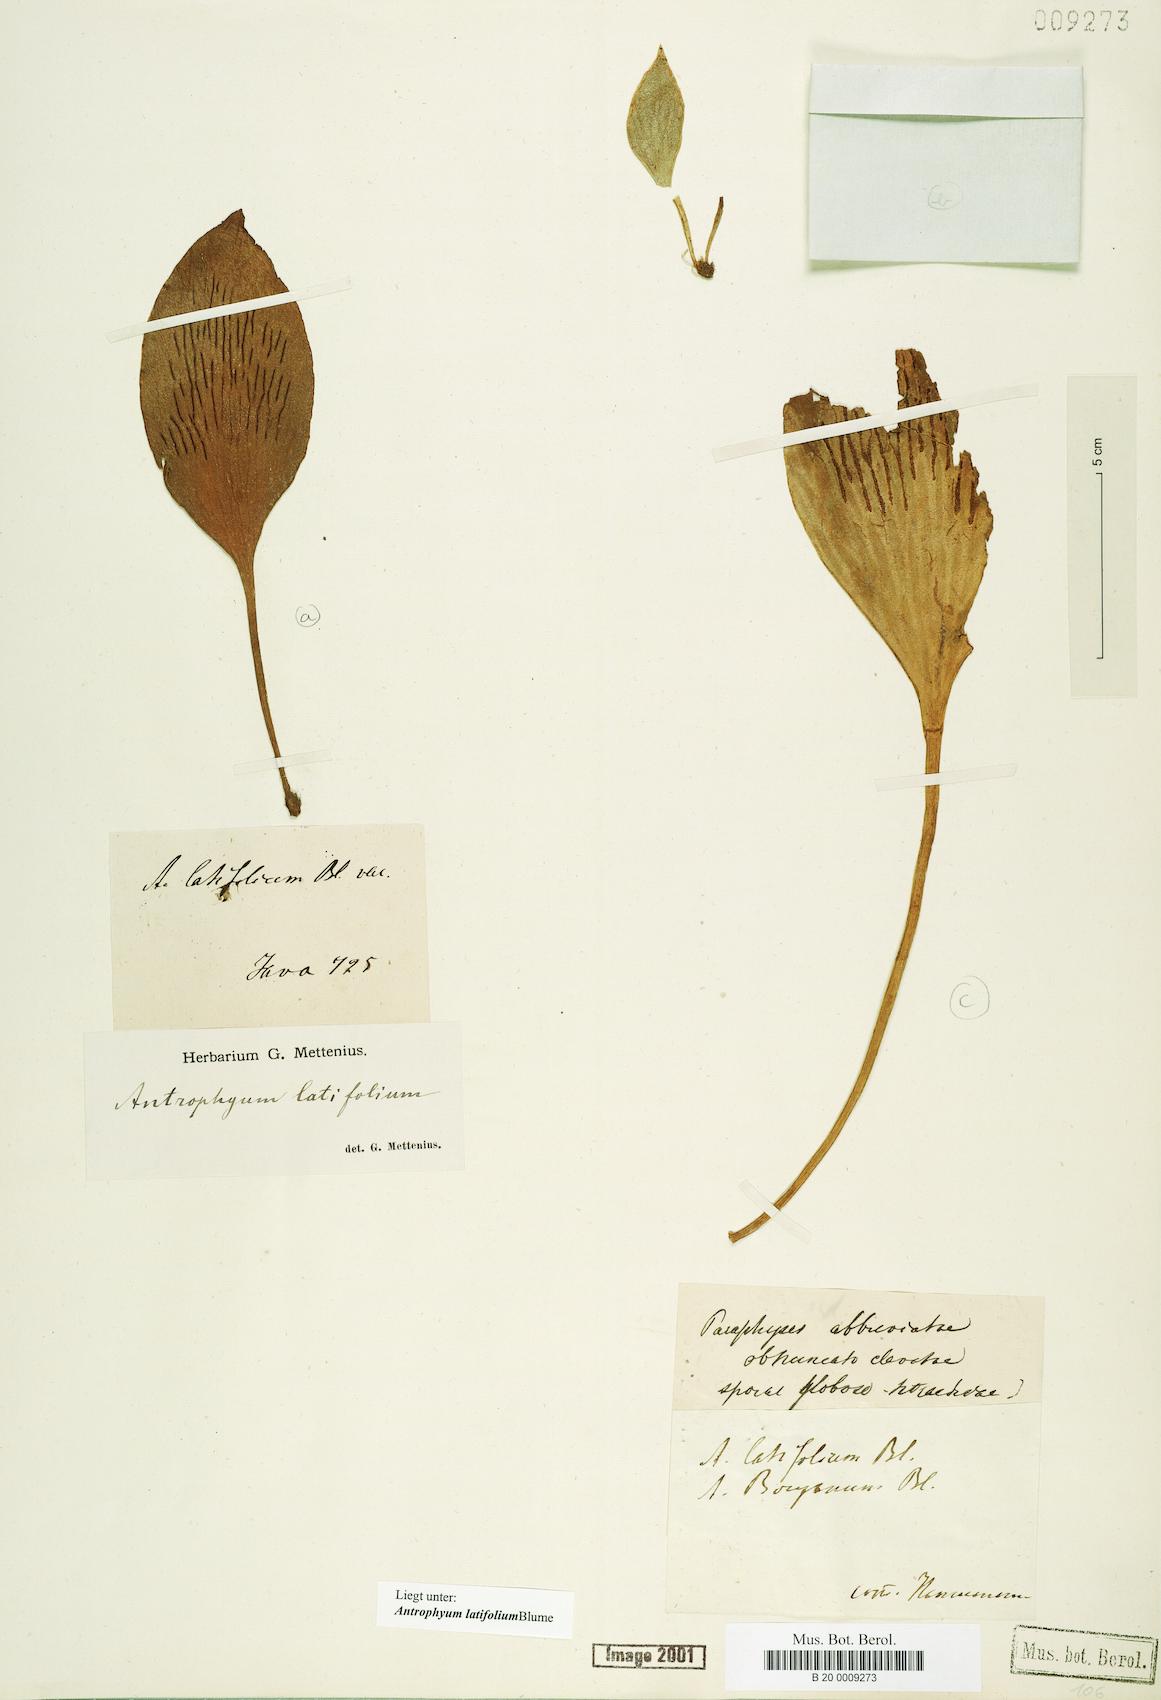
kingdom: Plantae
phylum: Tracheophyta
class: Polypodiopsida
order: Polypodiales
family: Pteridaceae
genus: Antrophyum
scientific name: Antrophyum latifolium
